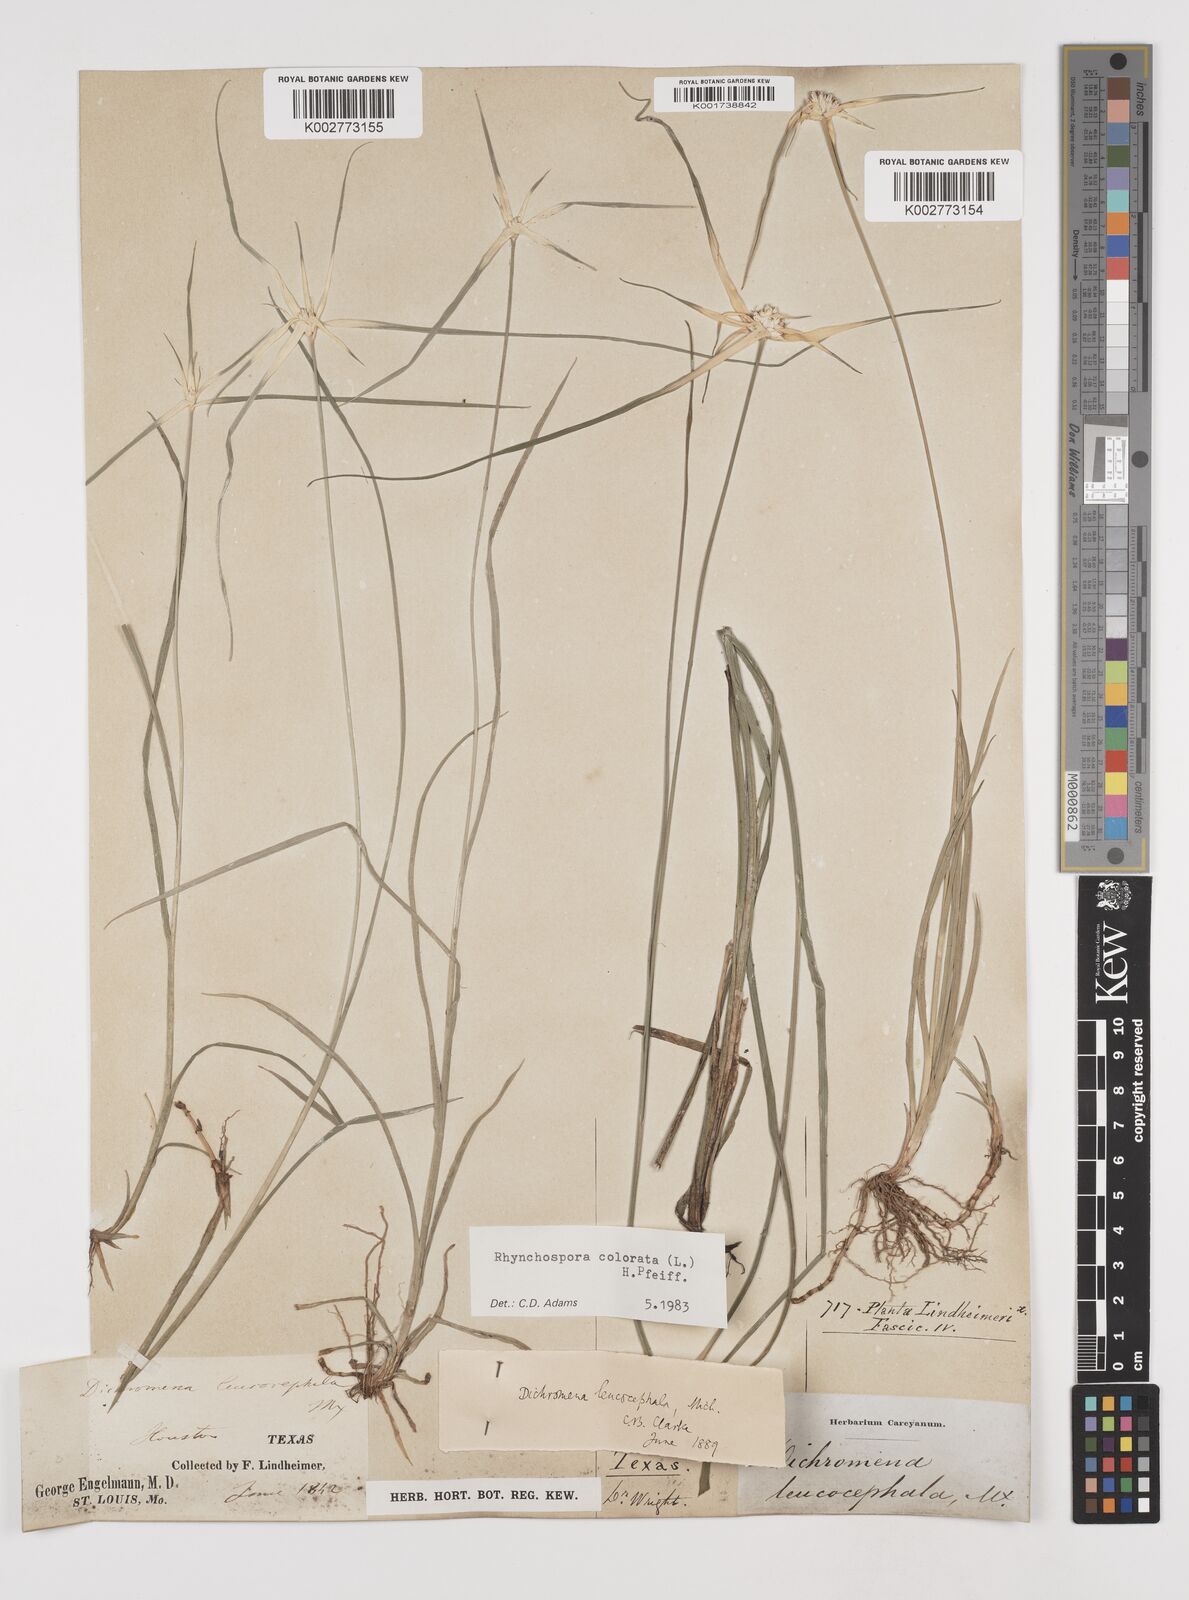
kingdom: Plantae
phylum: Tracheophyta
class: Liliopsida
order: Poales
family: Cyperaceae
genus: Rhynchospora
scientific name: Rhynchospora colorata
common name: Star sedge
